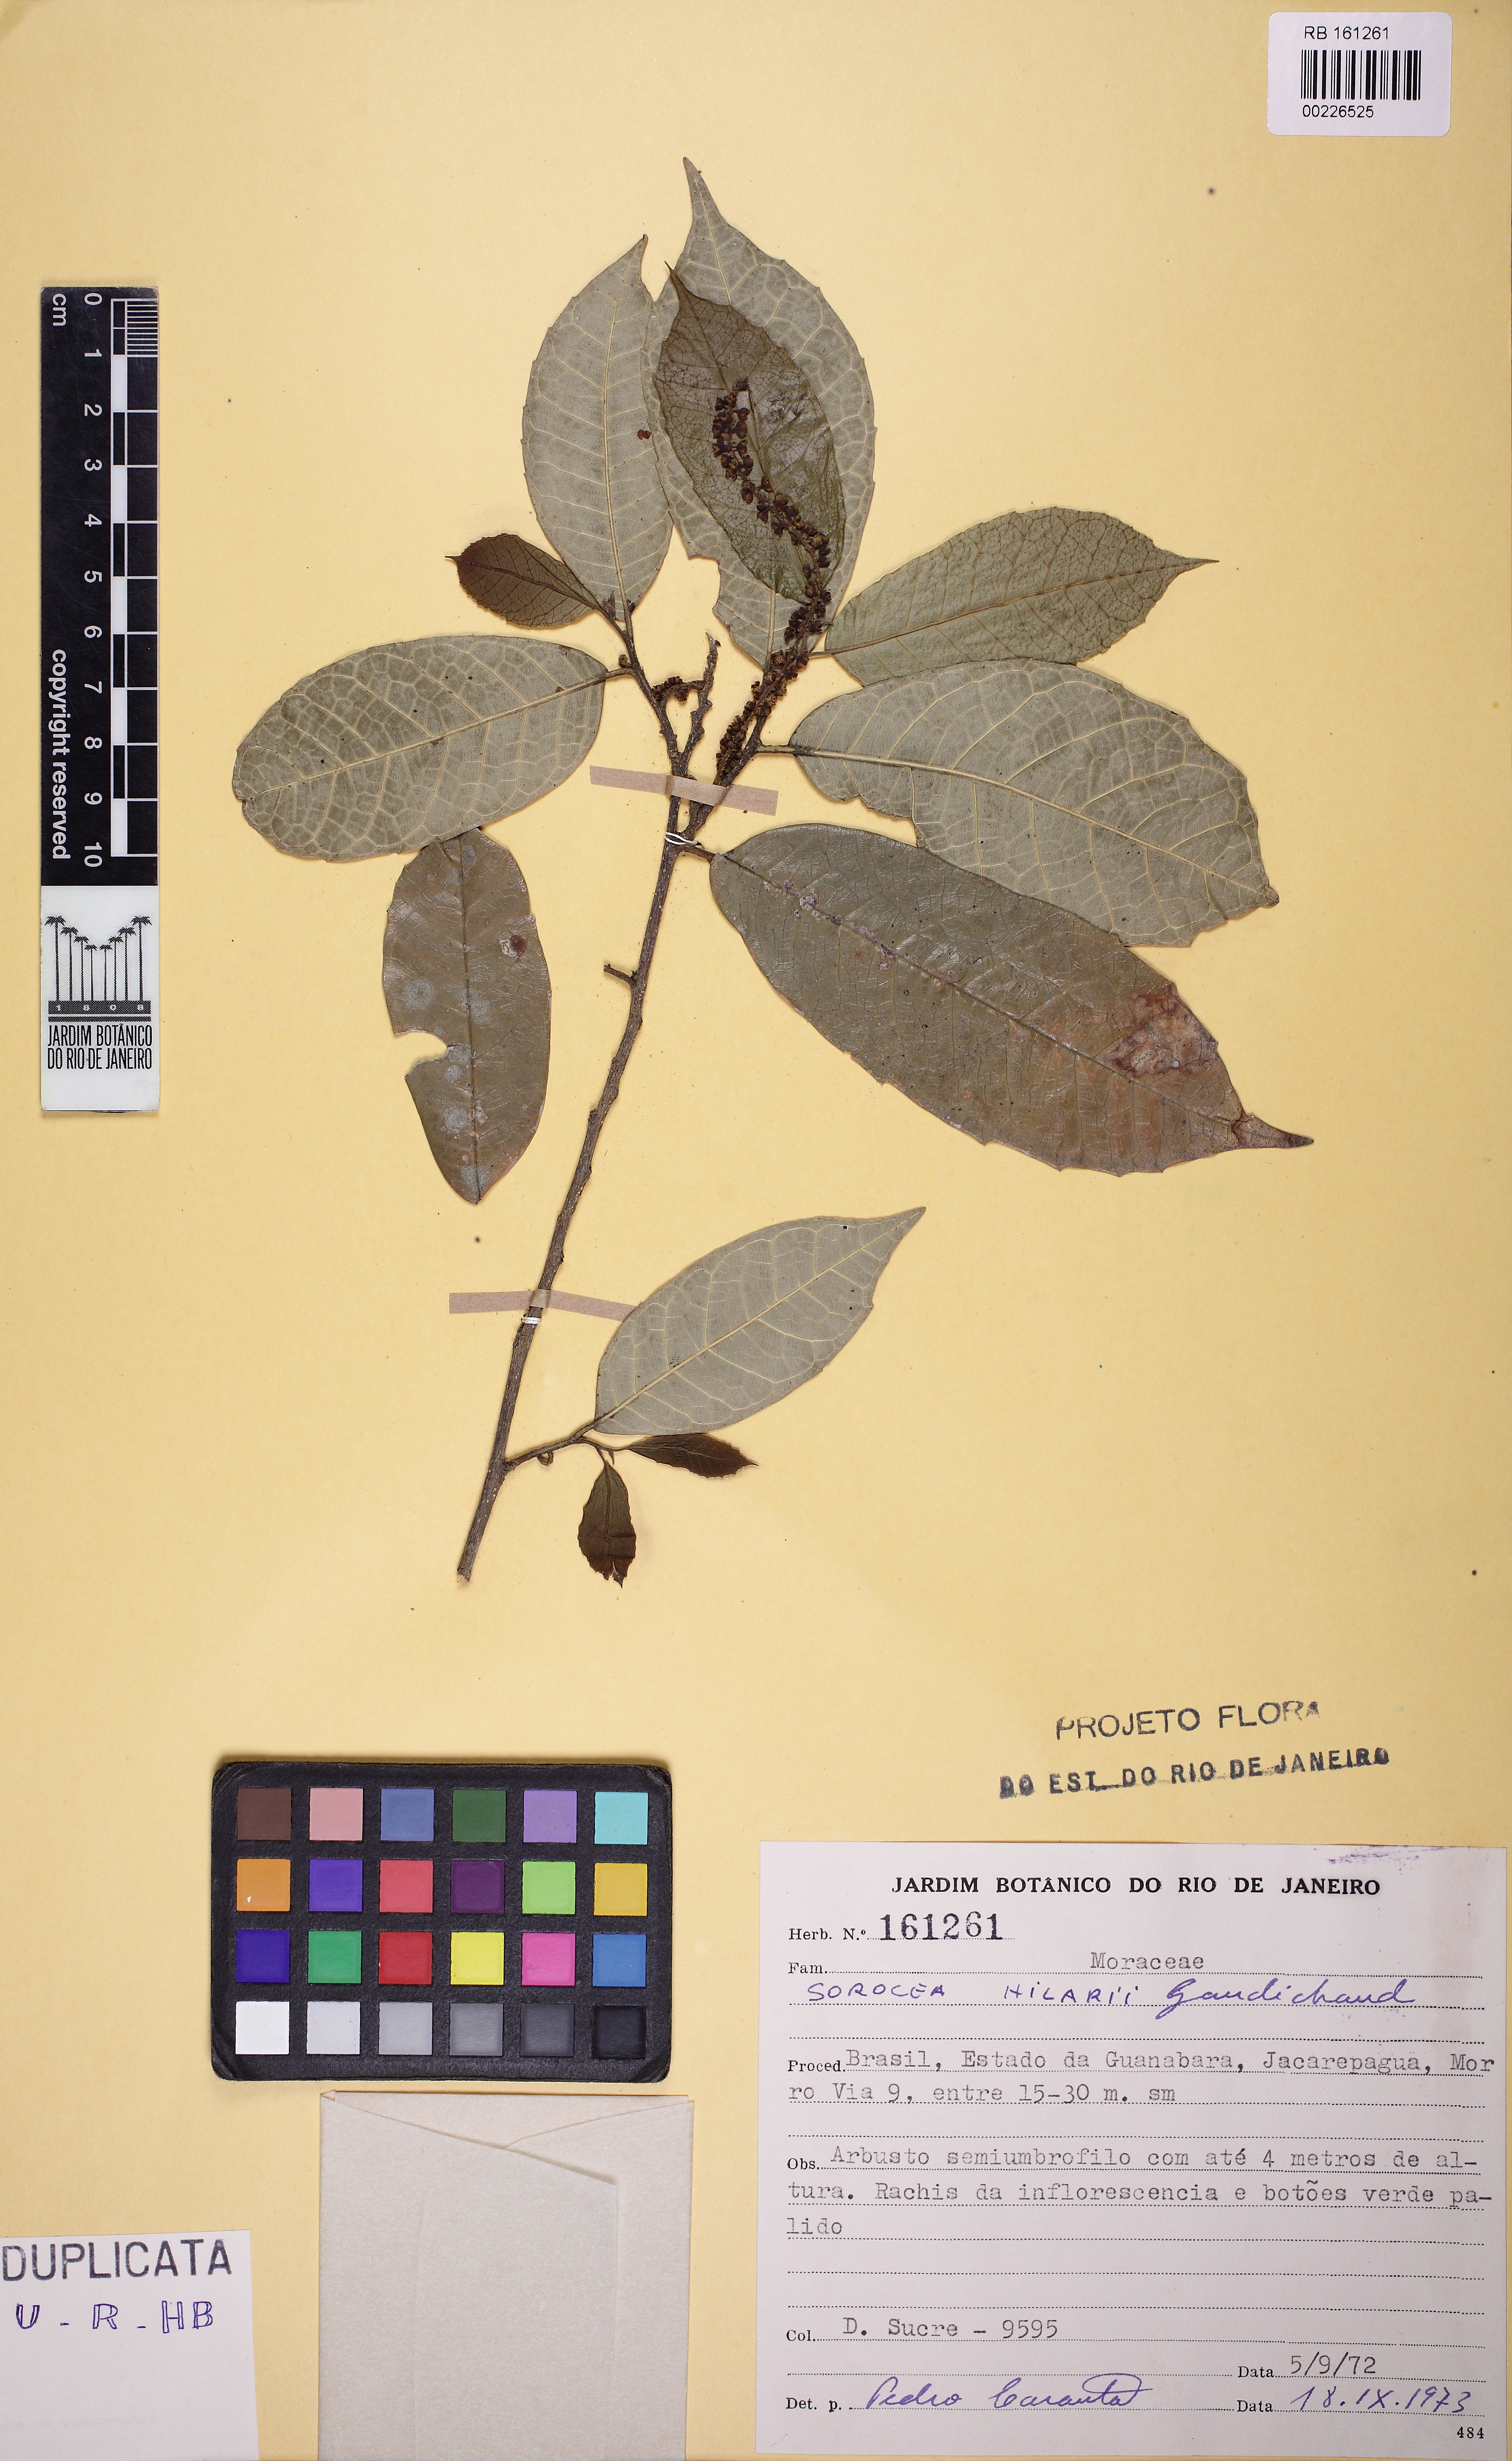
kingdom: Plantae
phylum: Tracheophyta
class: Magnoliopsida
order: Rosales
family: Moraceae
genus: Sorocea
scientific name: Sorocea hilarii
